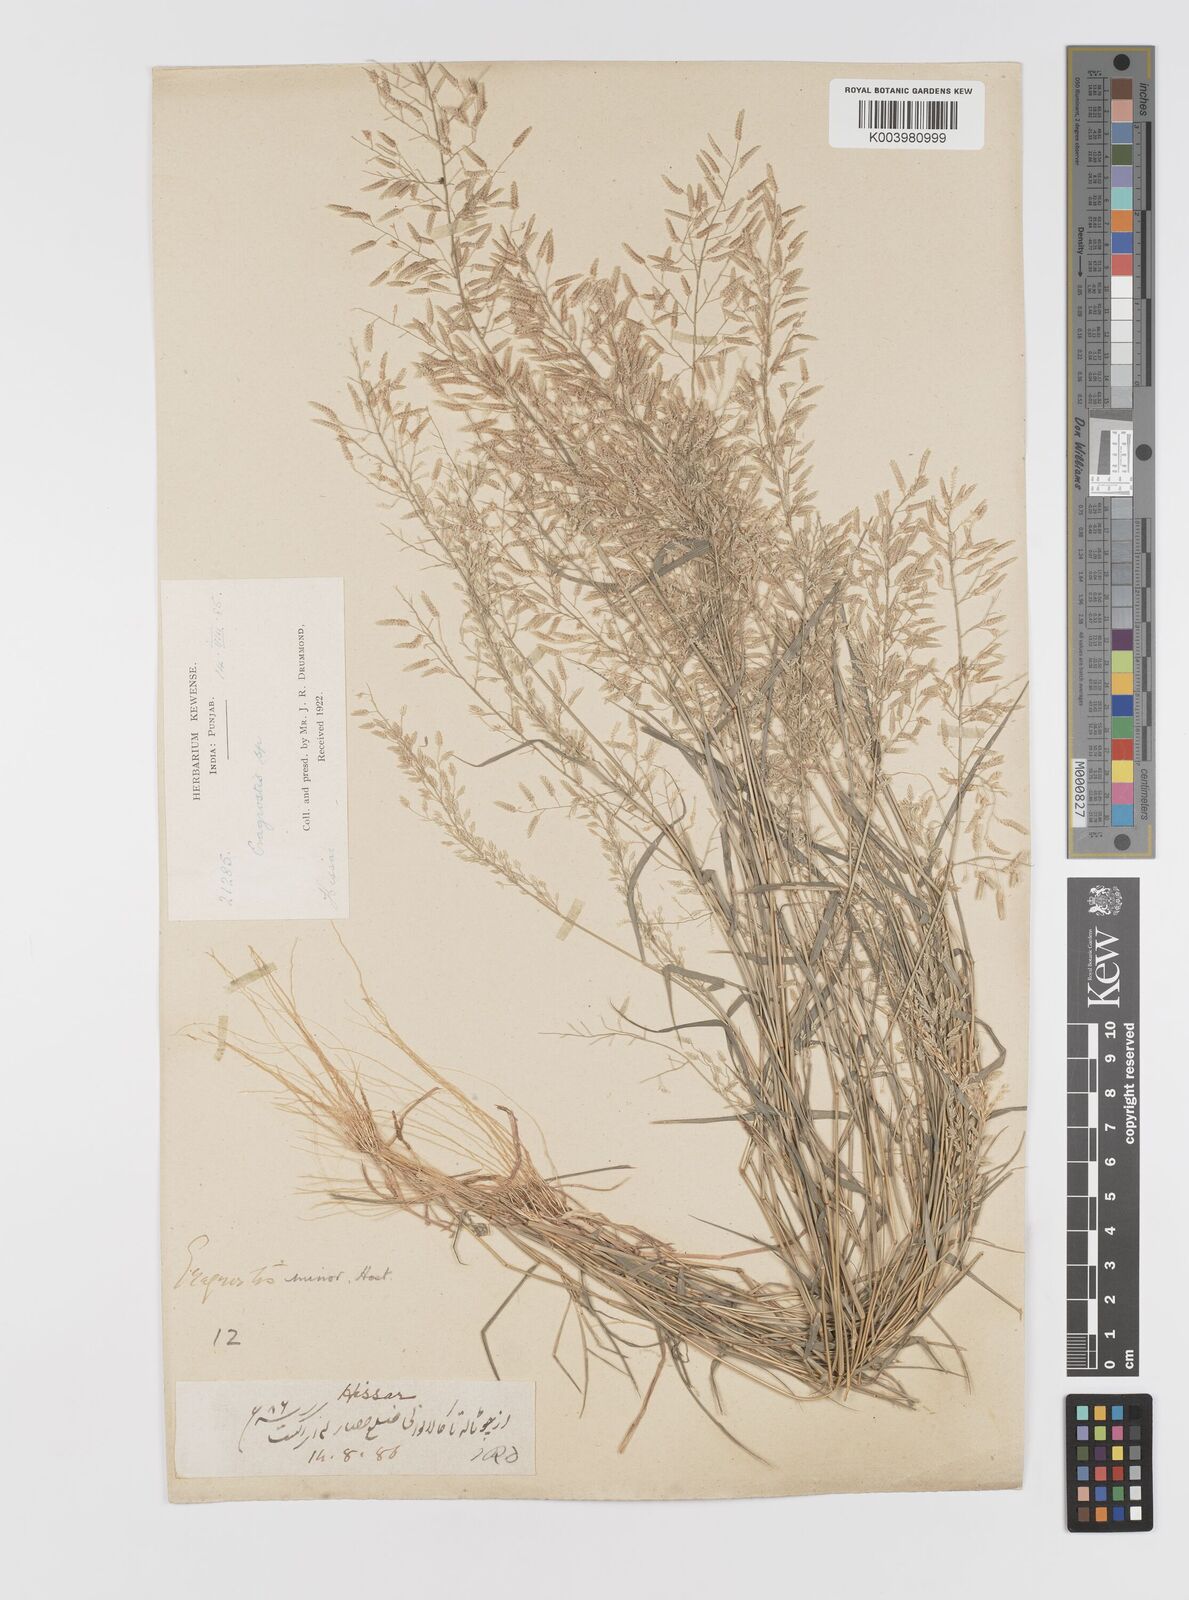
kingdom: Plantae
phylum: Tracheophyta
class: Liliopsida
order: Poales
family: Poaceae
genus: Eragrostis
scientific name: Eragrostis minor
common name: Small love-grass
